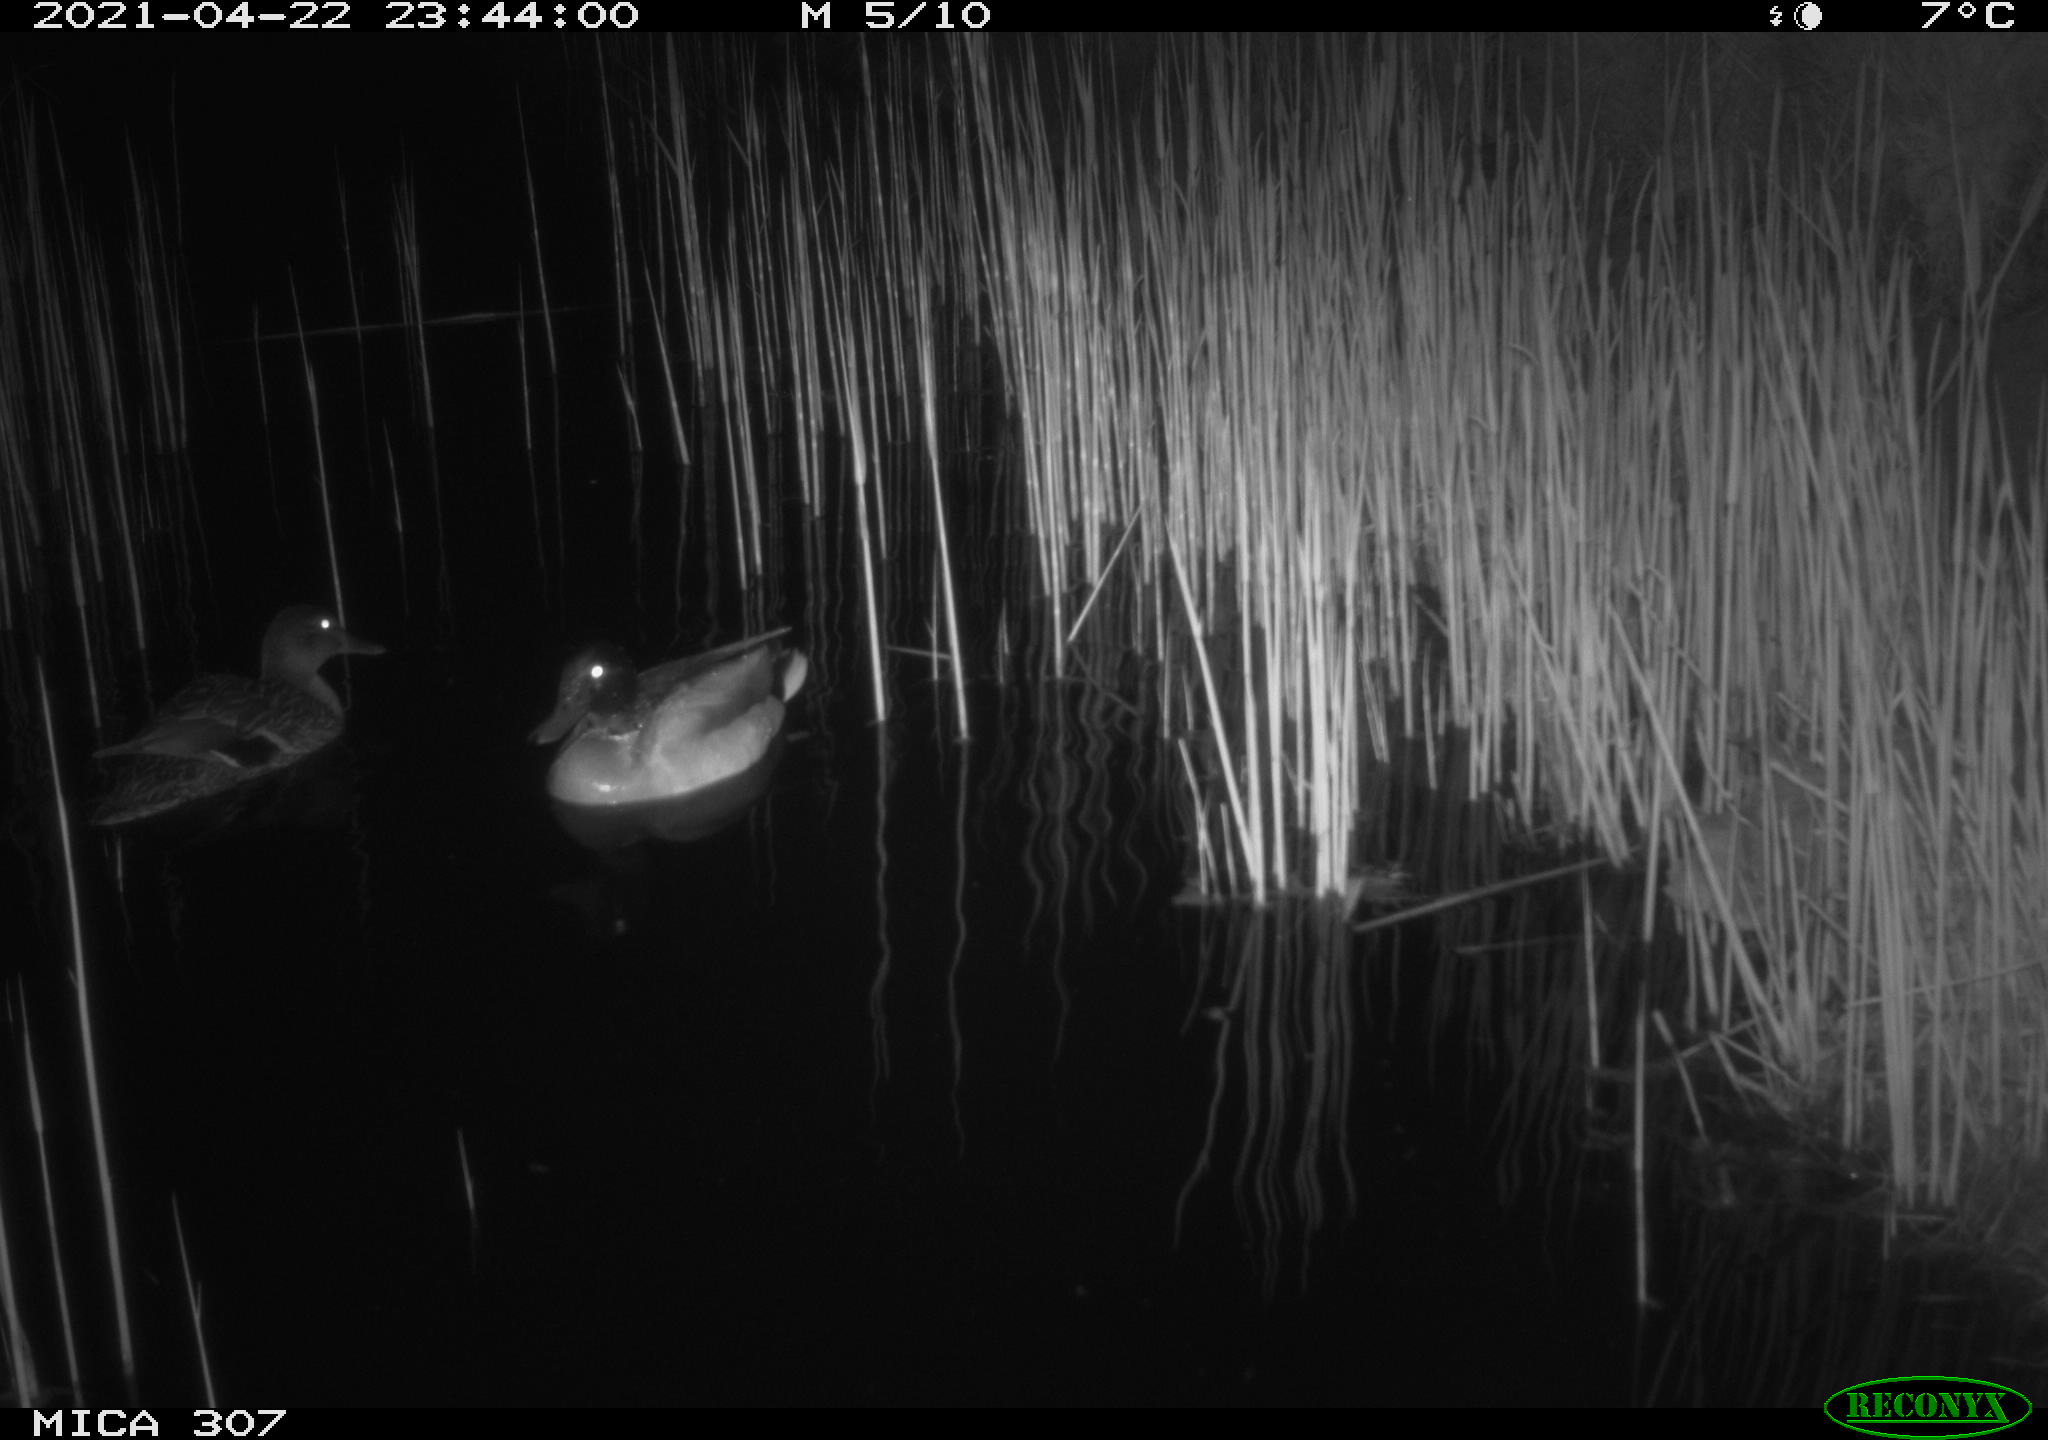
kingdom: Animalia
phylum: Chordata
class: Aves
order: Anseriformes
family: Anatidae
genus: Anas
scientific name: Anas platyrhynchos
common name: Mallard
